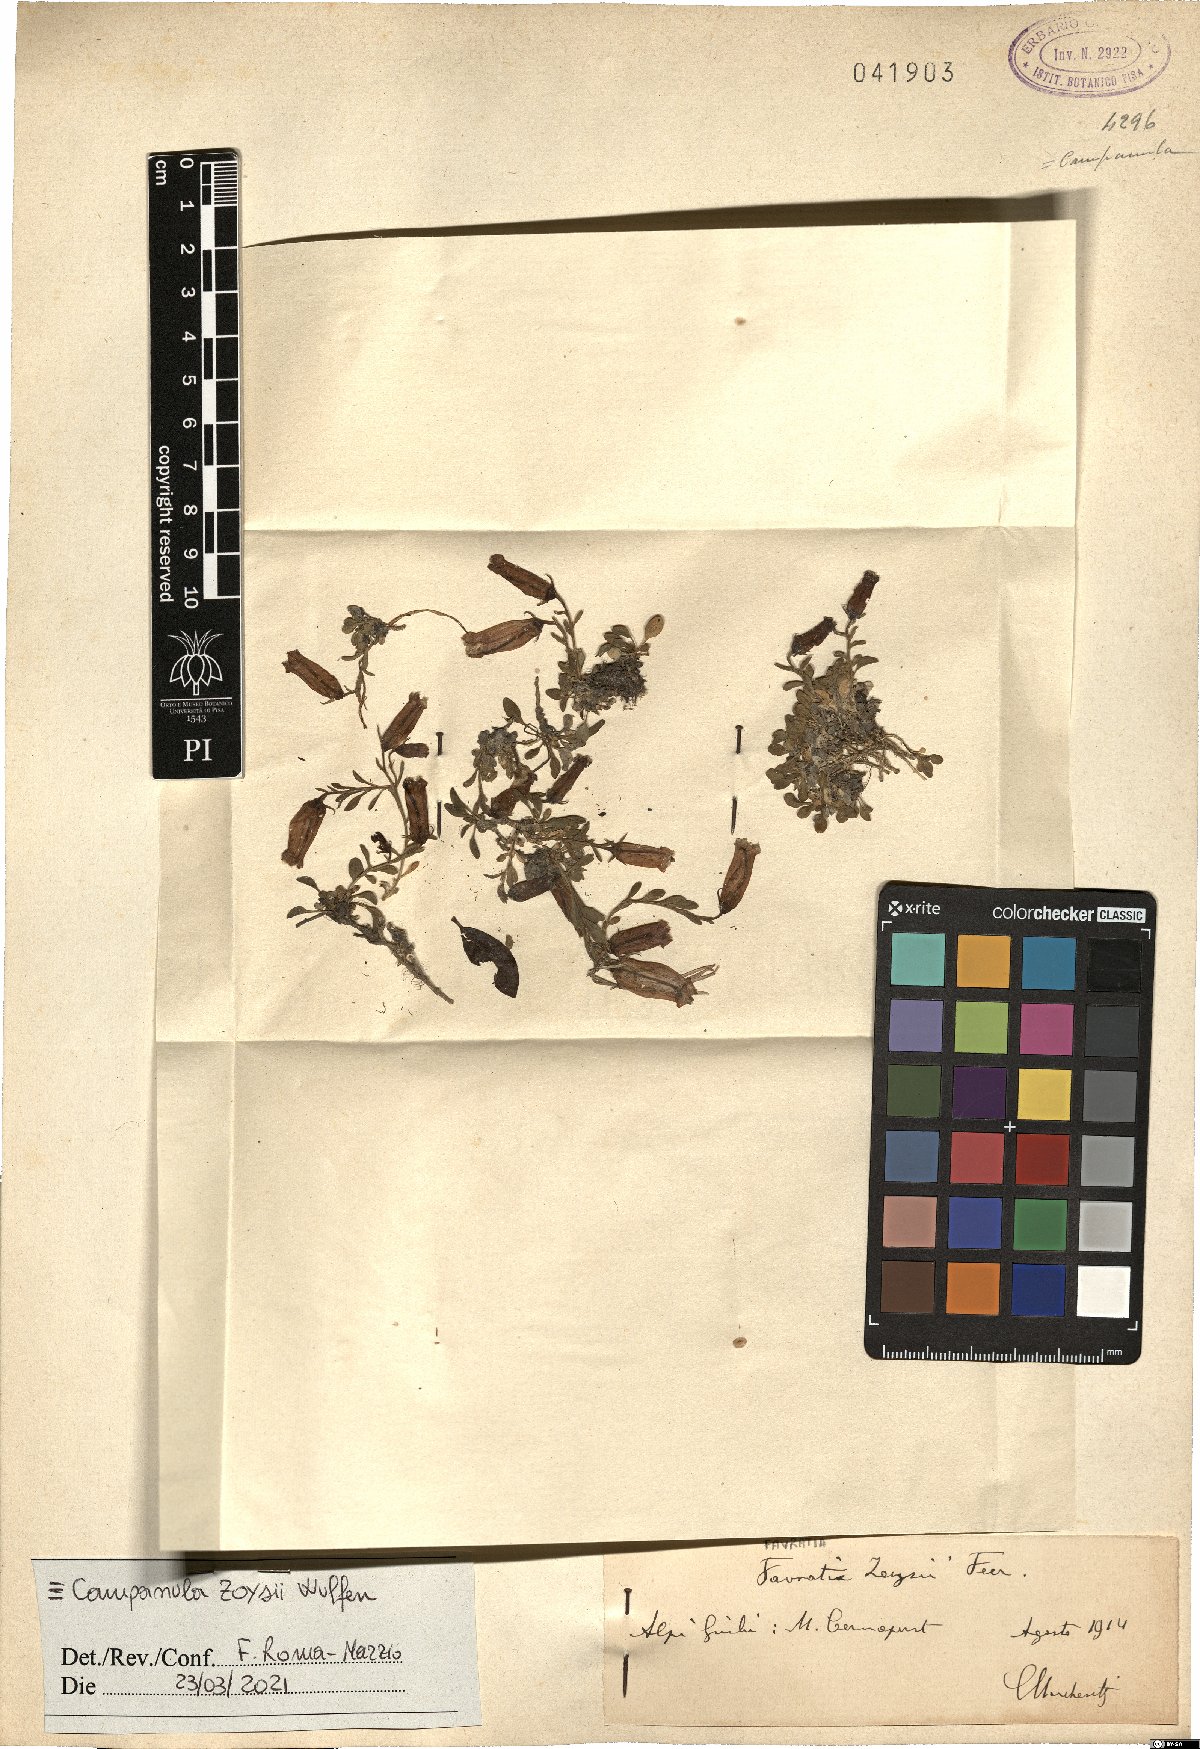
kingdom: Plantae
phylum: Tracheophyta
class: Magnoliopsida
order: Asterales
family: Campanulaceae
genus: Favratia
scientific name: Favratia zoysii
